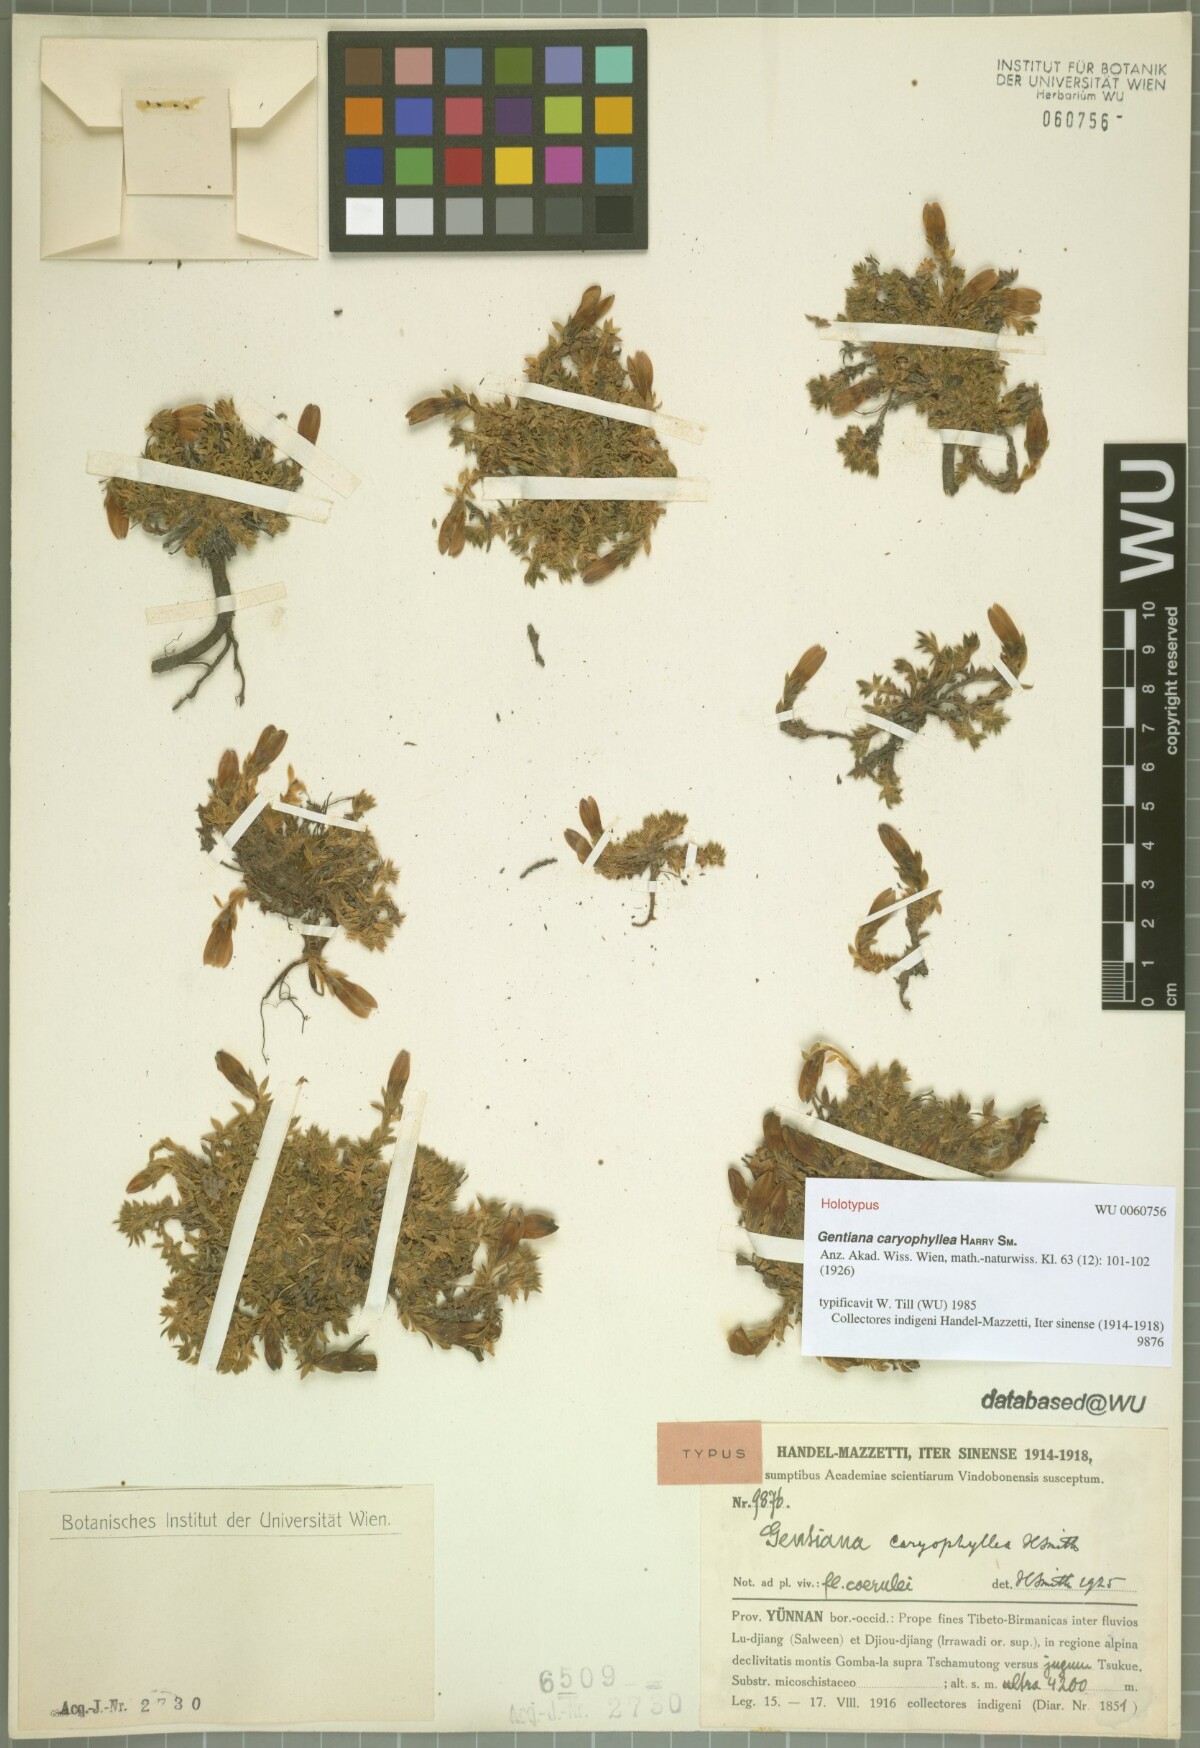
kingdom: Plantae
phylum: Tracheophyta
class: Magnoliopsida
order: Gentianales
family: Gentianaceae
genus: Kuepferia
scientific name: Kuepferia caryophyllea
